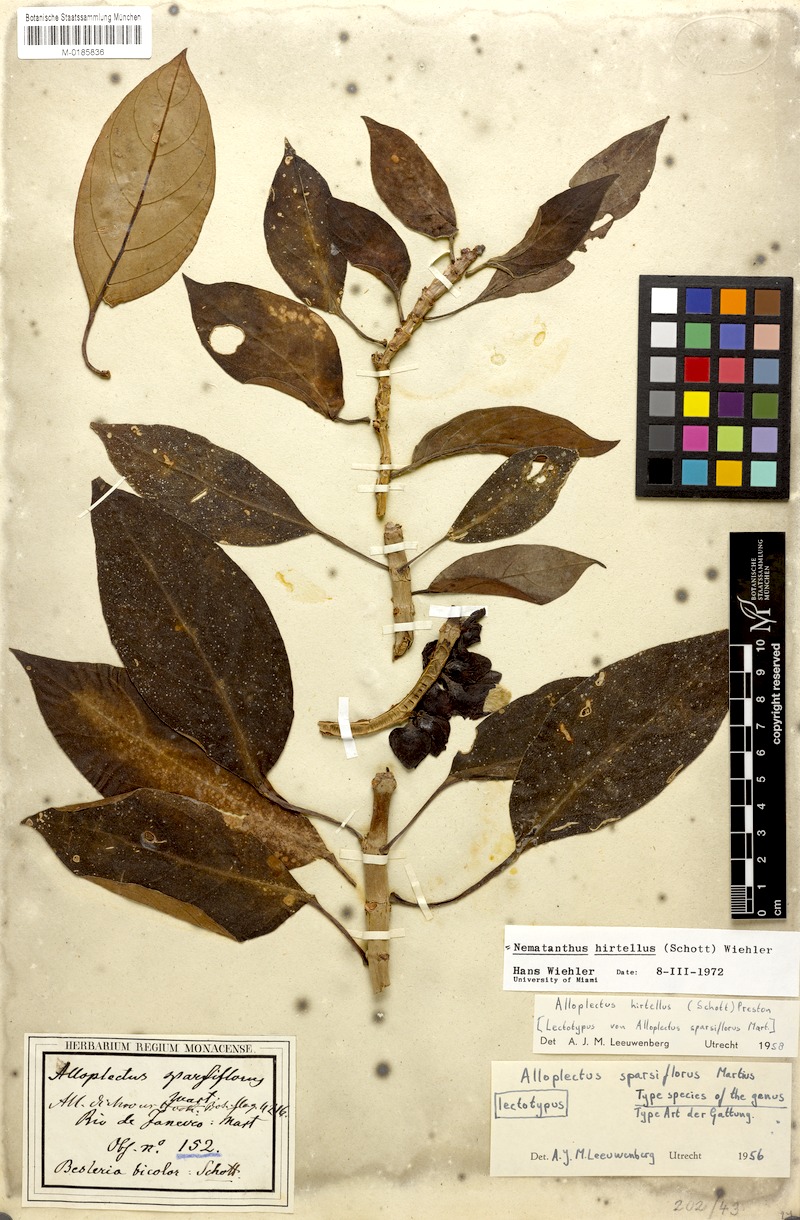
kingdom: Plantae
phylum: Tracheophyta
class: Magnoliopsida
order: Lamiales
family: Gesneriaceae
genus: Nematanthus
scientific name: Nematanthus hirtellus
